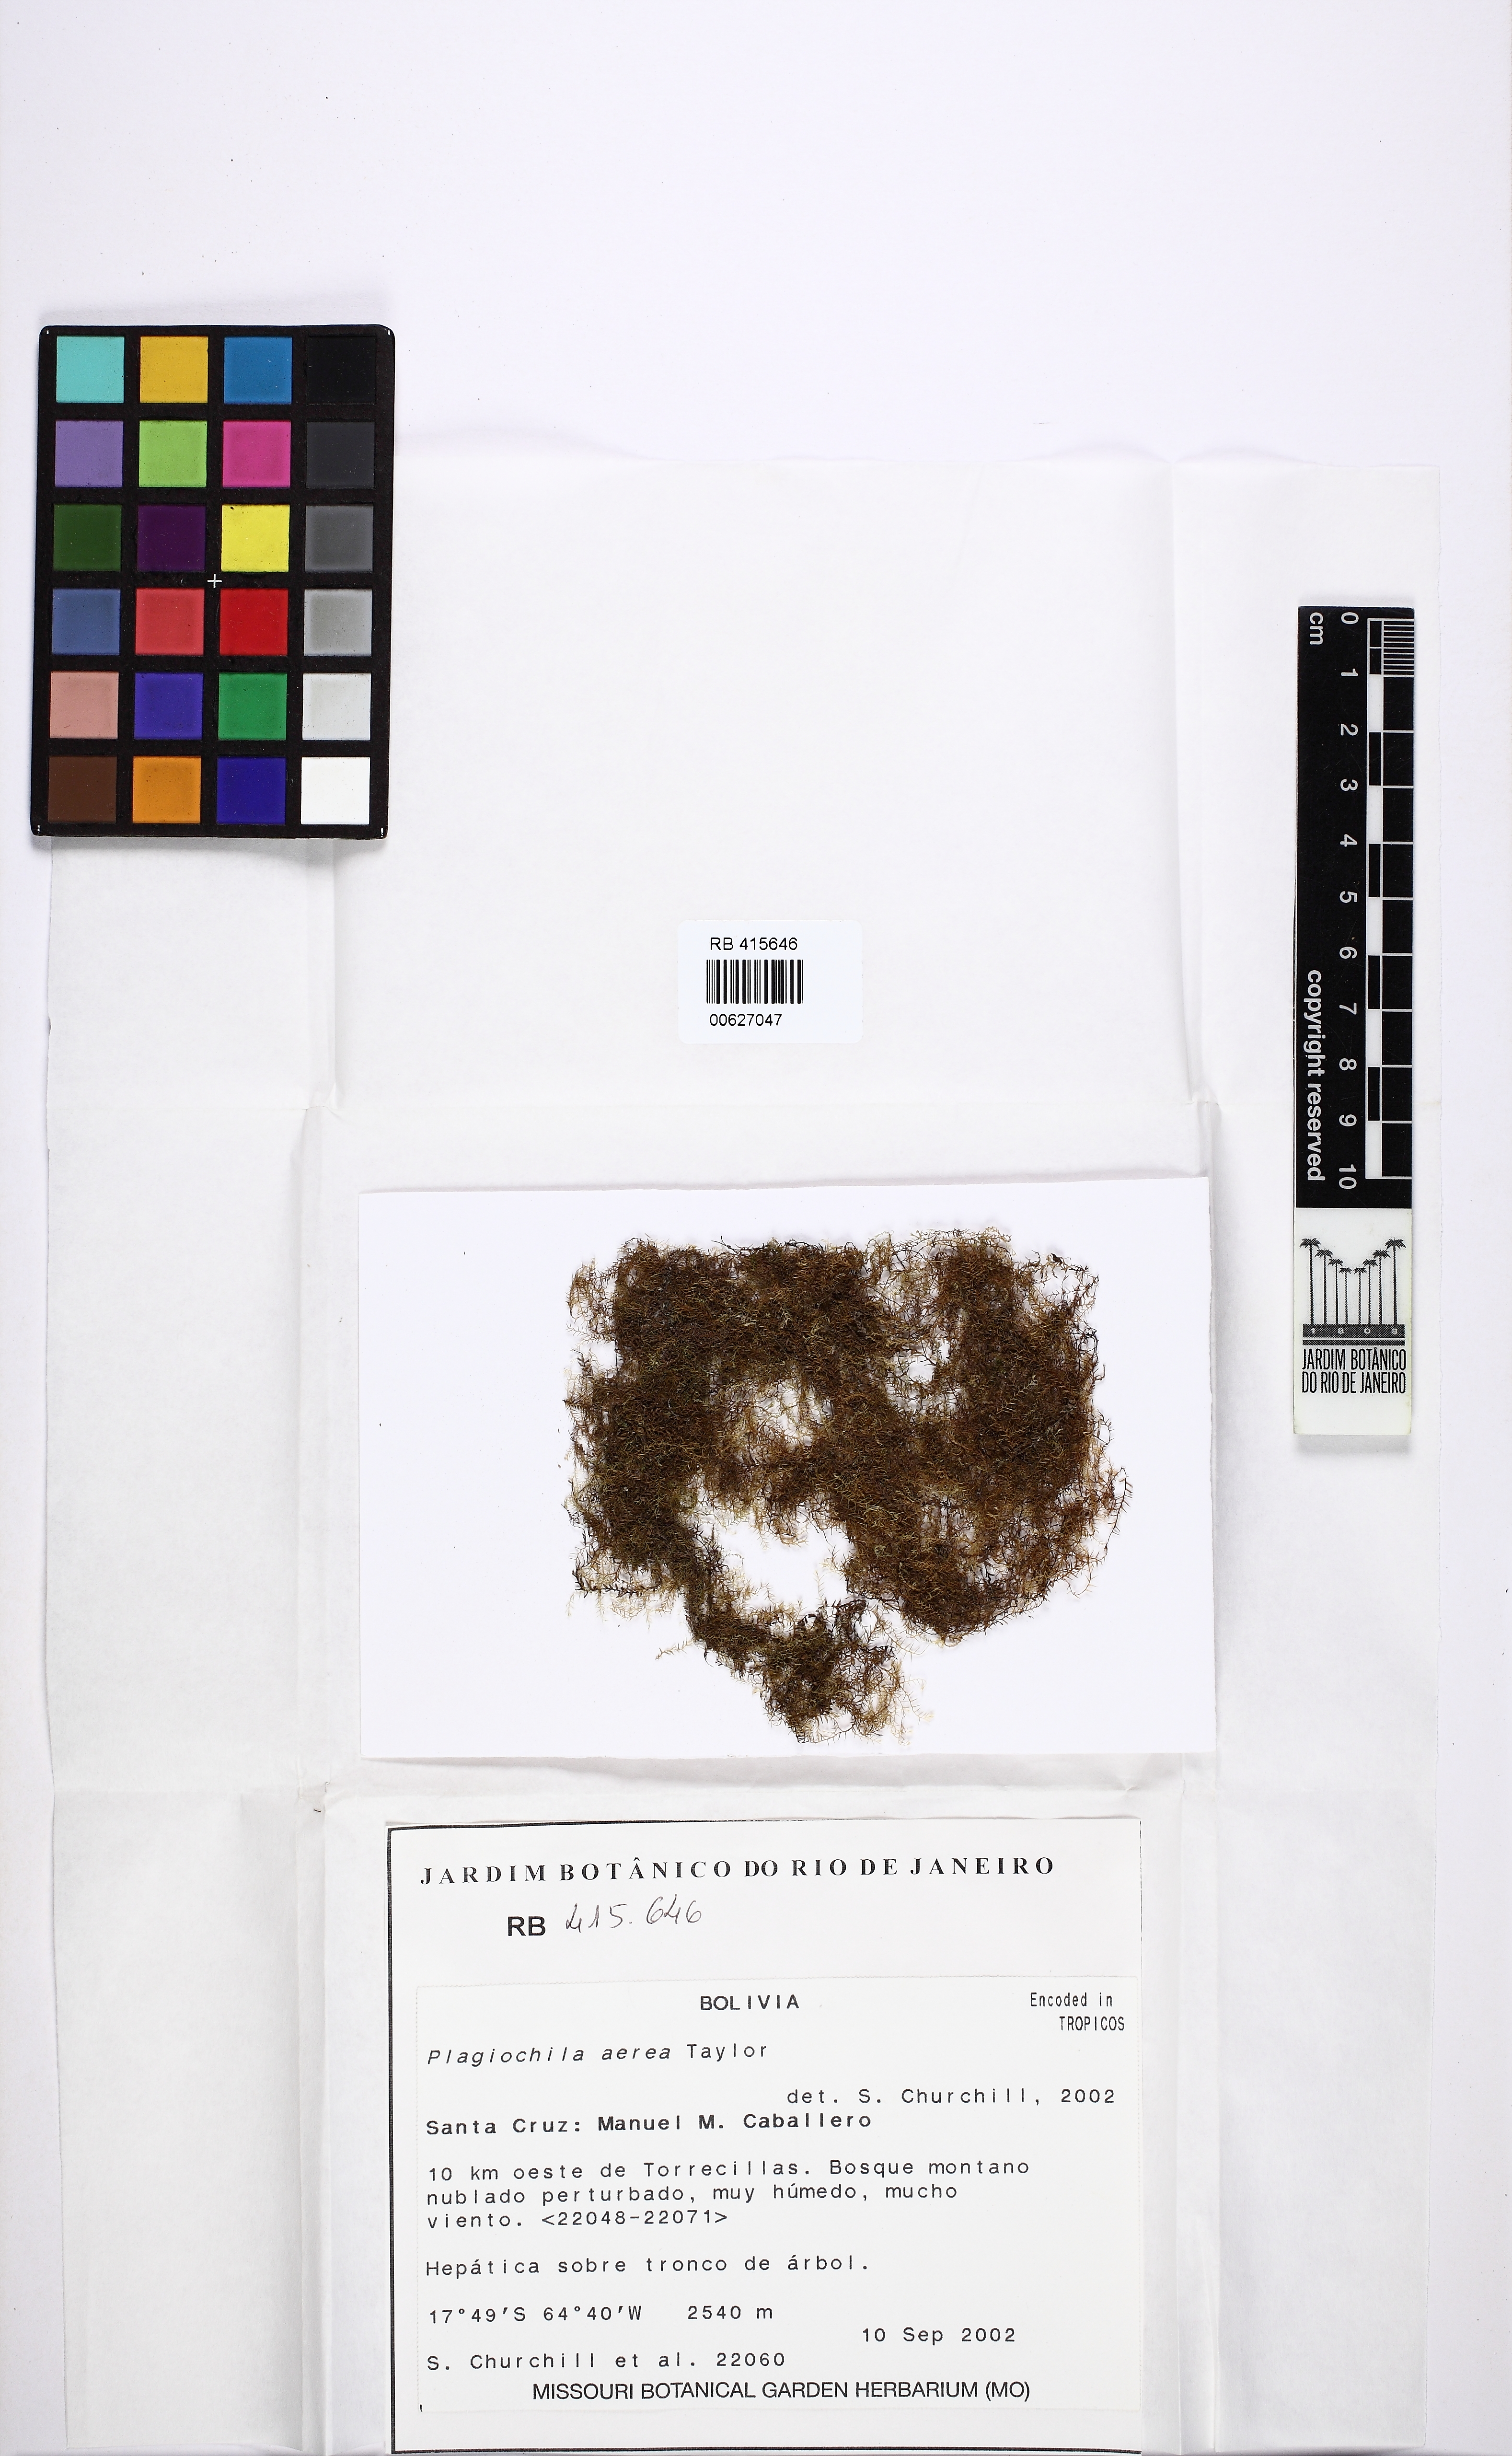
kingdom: Plantae
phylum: Marchantiophyta
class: Jungermanniopsida
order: Jungermanniales
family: Plagiochilaceae
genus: Plagiochila
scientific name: Plagiochila aerea
